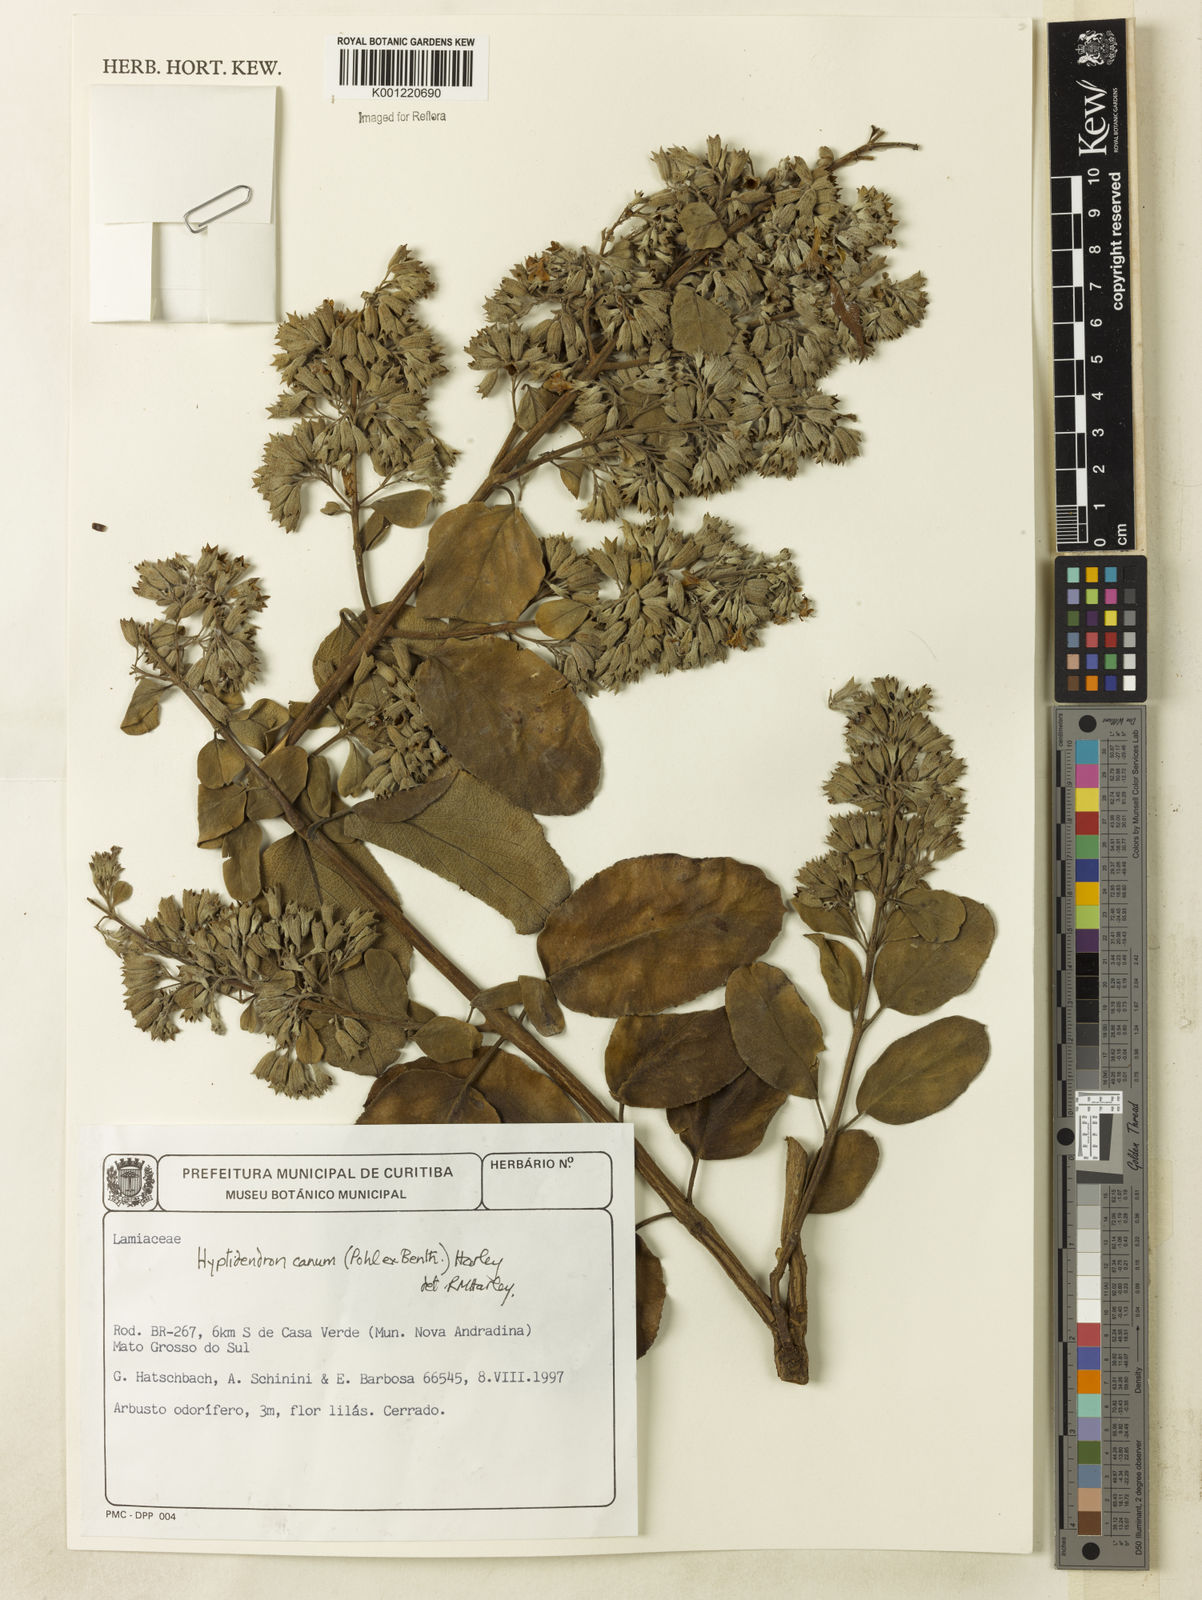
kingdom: Plantae
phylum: Tracheophyta
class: Magnoliopsida
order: Lamiales
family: Lamiaceae
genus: Hyptidendron
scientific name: Hyptidendron canum
